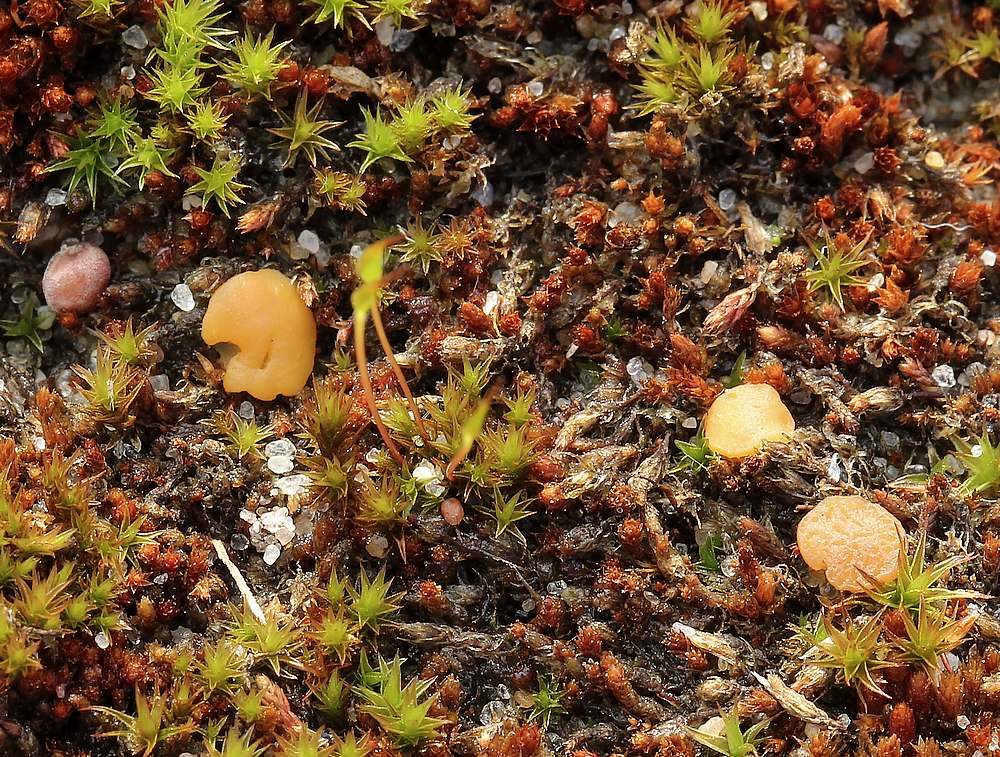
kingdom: Fungi
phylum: Ascomycota
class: Leotiomycetes
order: Helotiales
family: Helotiaceae
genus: Bryoscyphus
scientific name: Bryoscyphus
